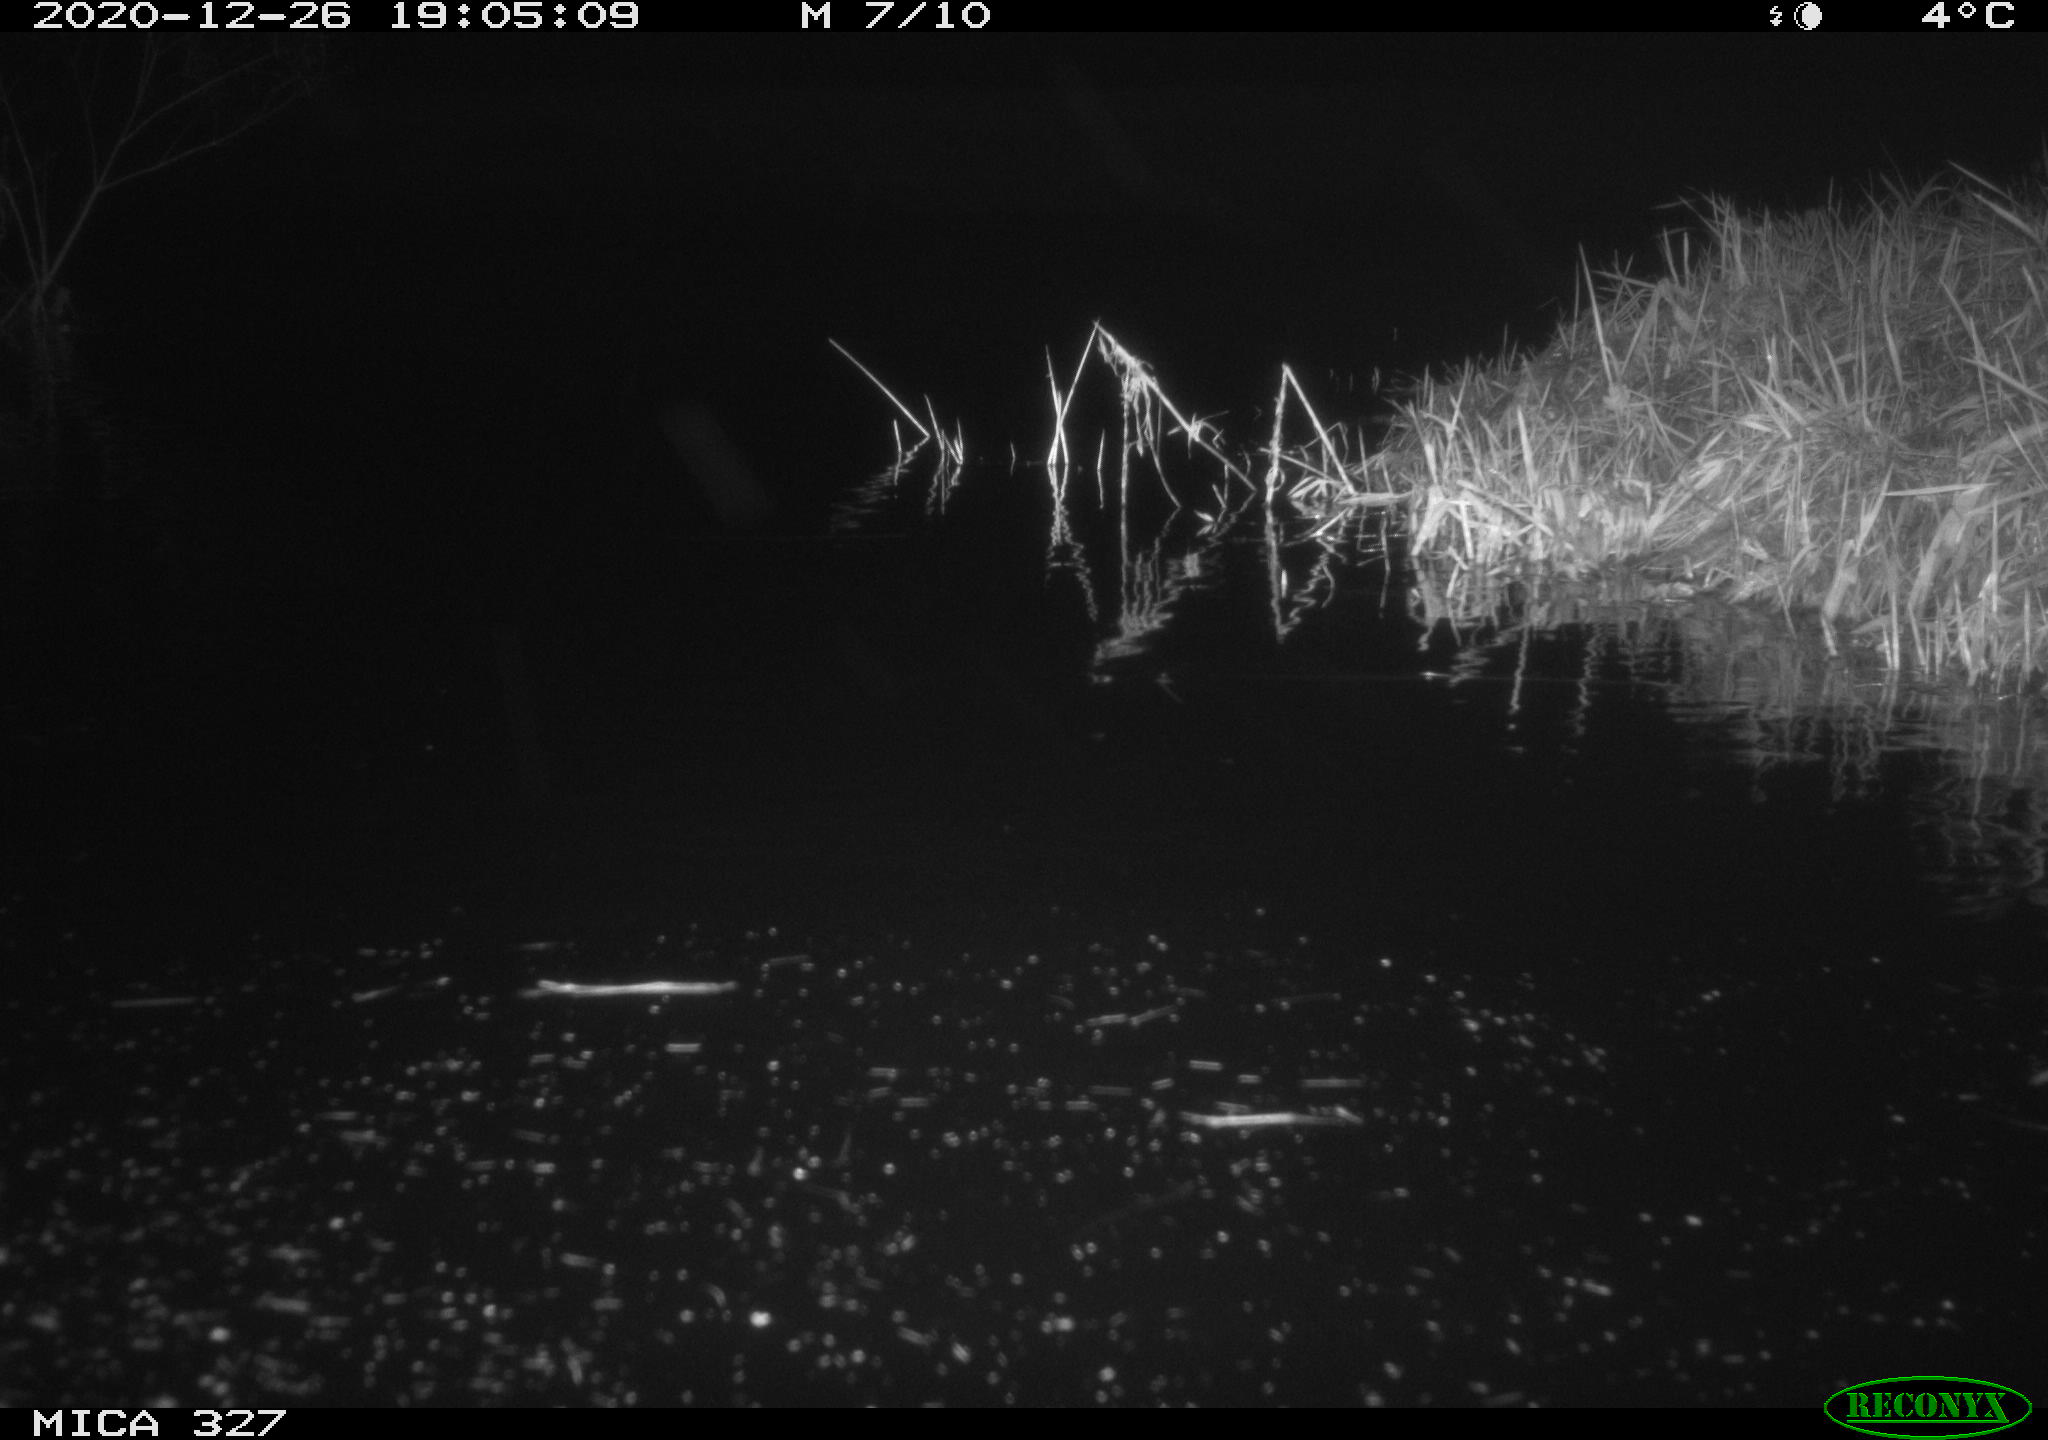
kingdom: Animalia
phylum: Chordata
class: Mammalia
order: Rodentia
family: Cricetidae
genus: Ondatra
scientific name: Ondatra zibethicus
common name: Muskrat
